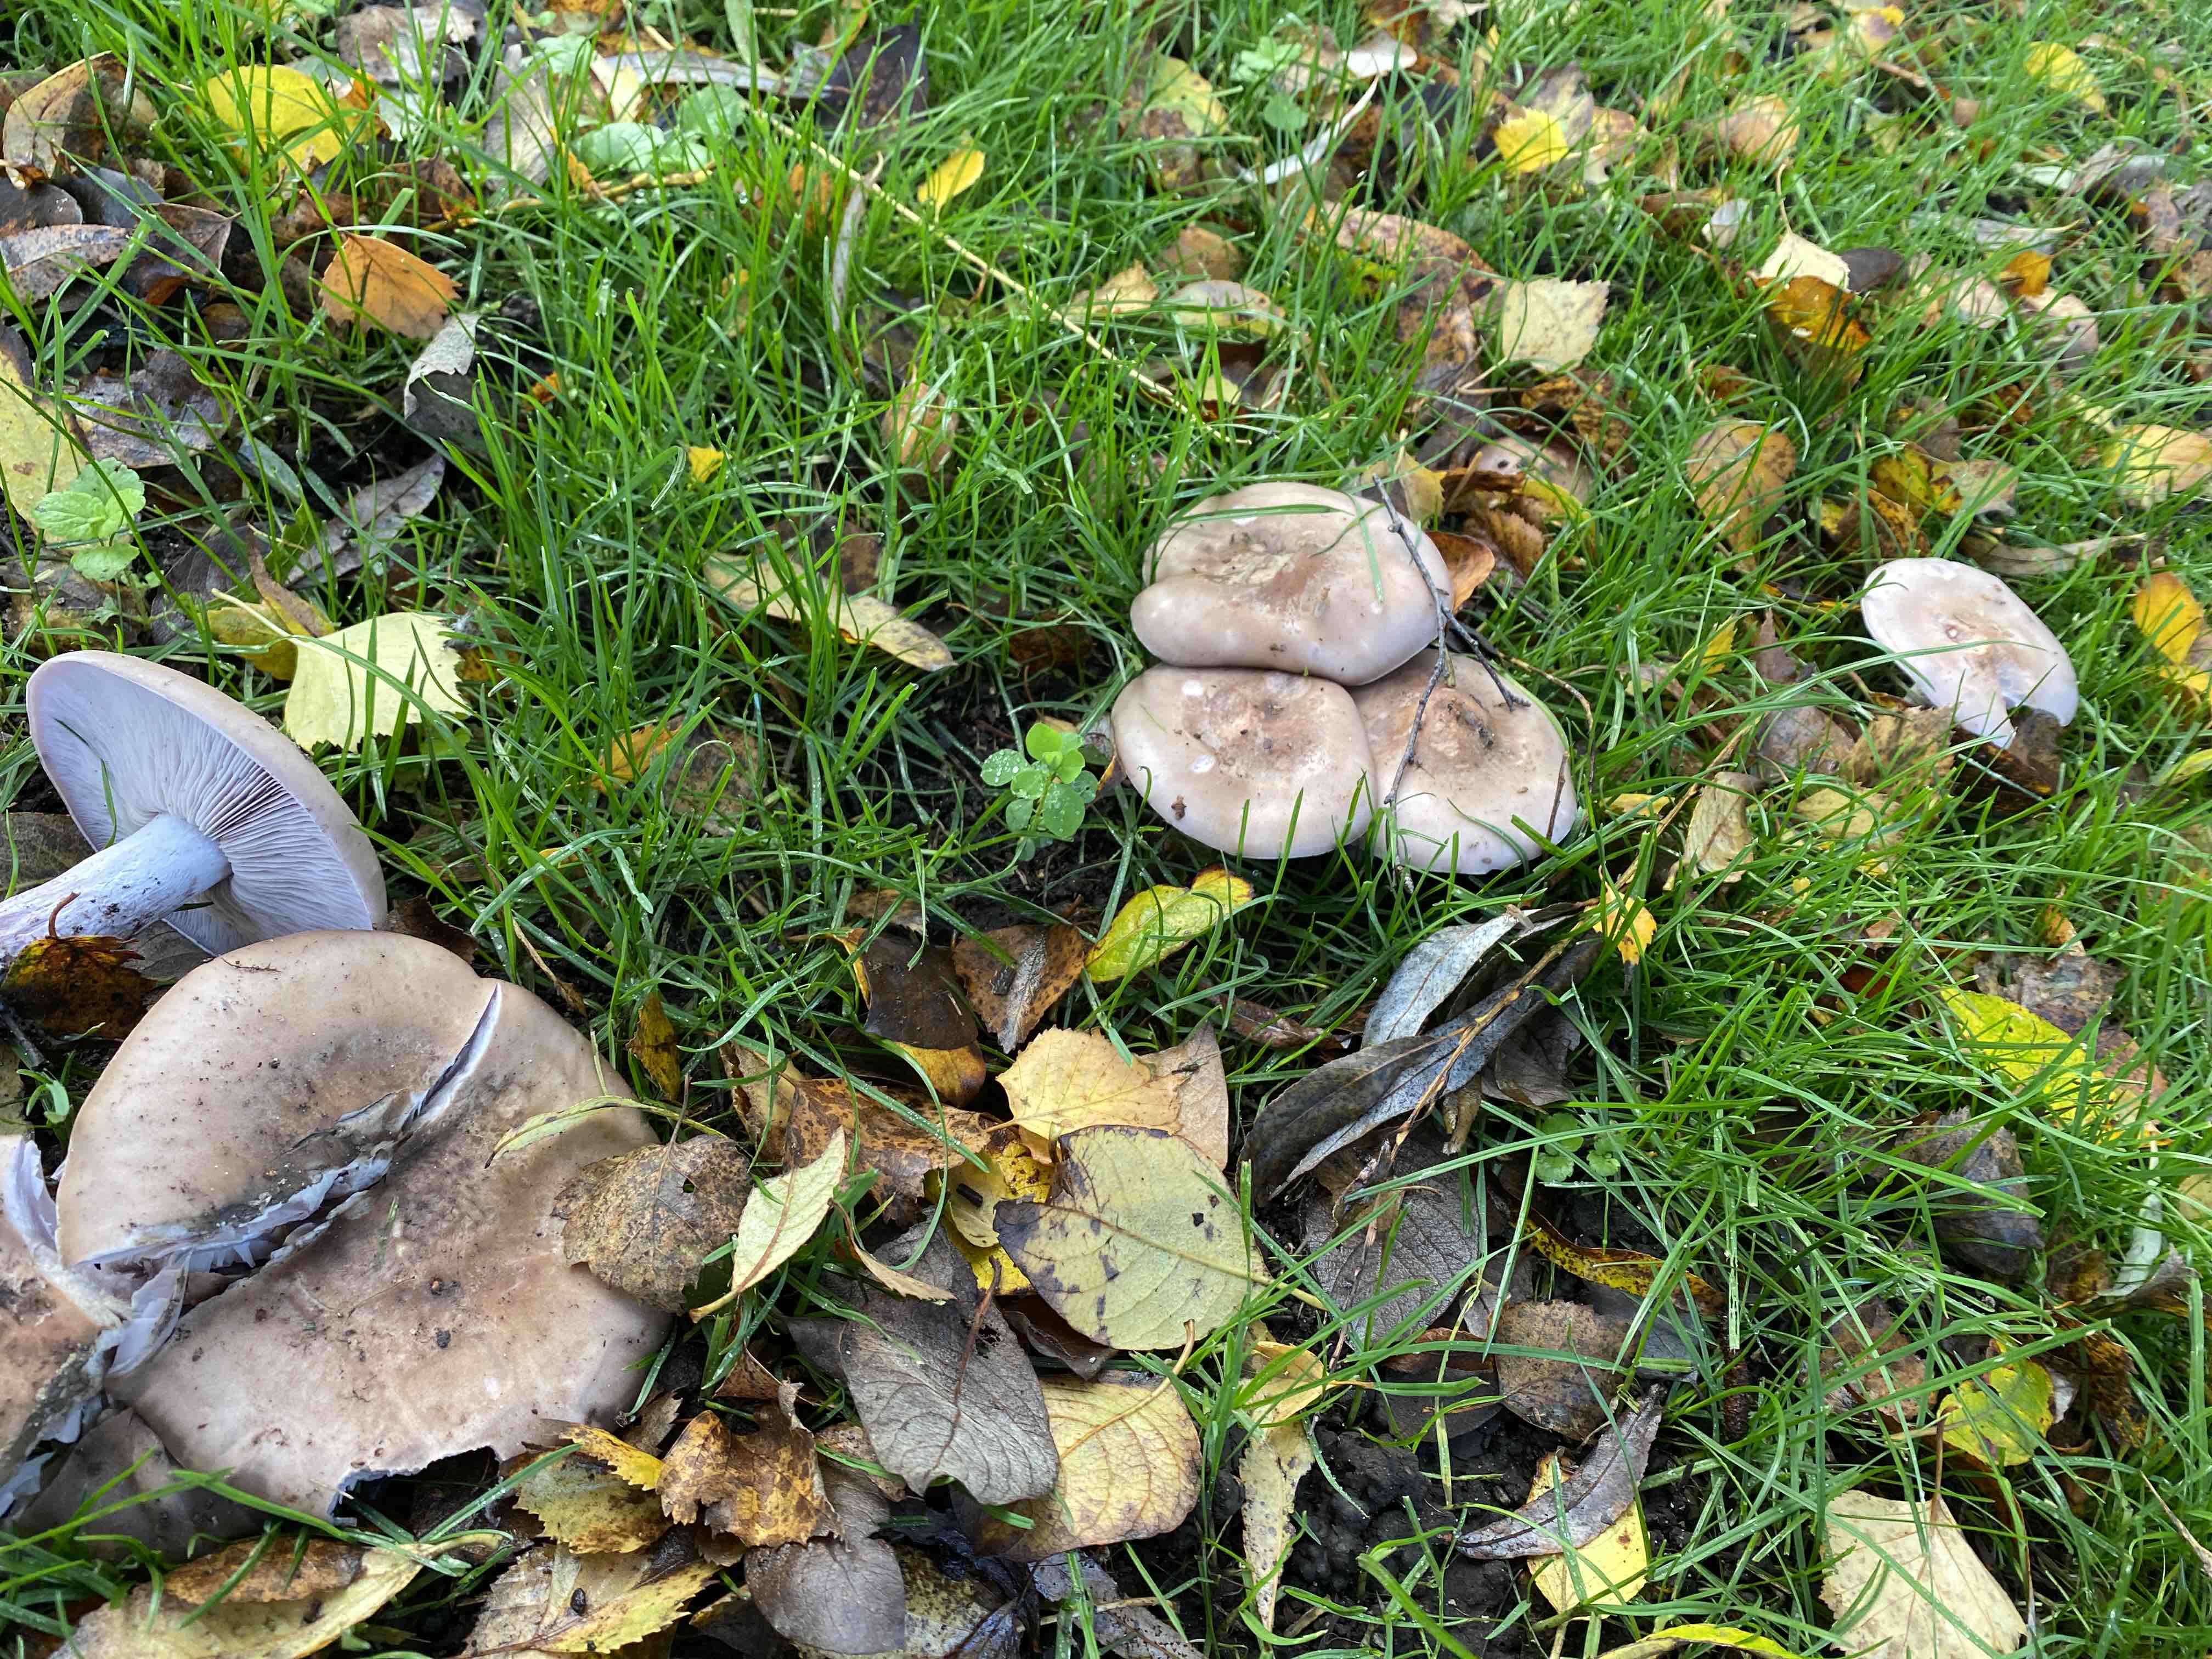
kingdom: Fungi
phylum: Basidiomycota
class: Agaricomycetes
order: Agaricales
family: Tricholomataceae
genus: Lepista
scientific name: Lepista nuda
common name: violet hekseringshat
